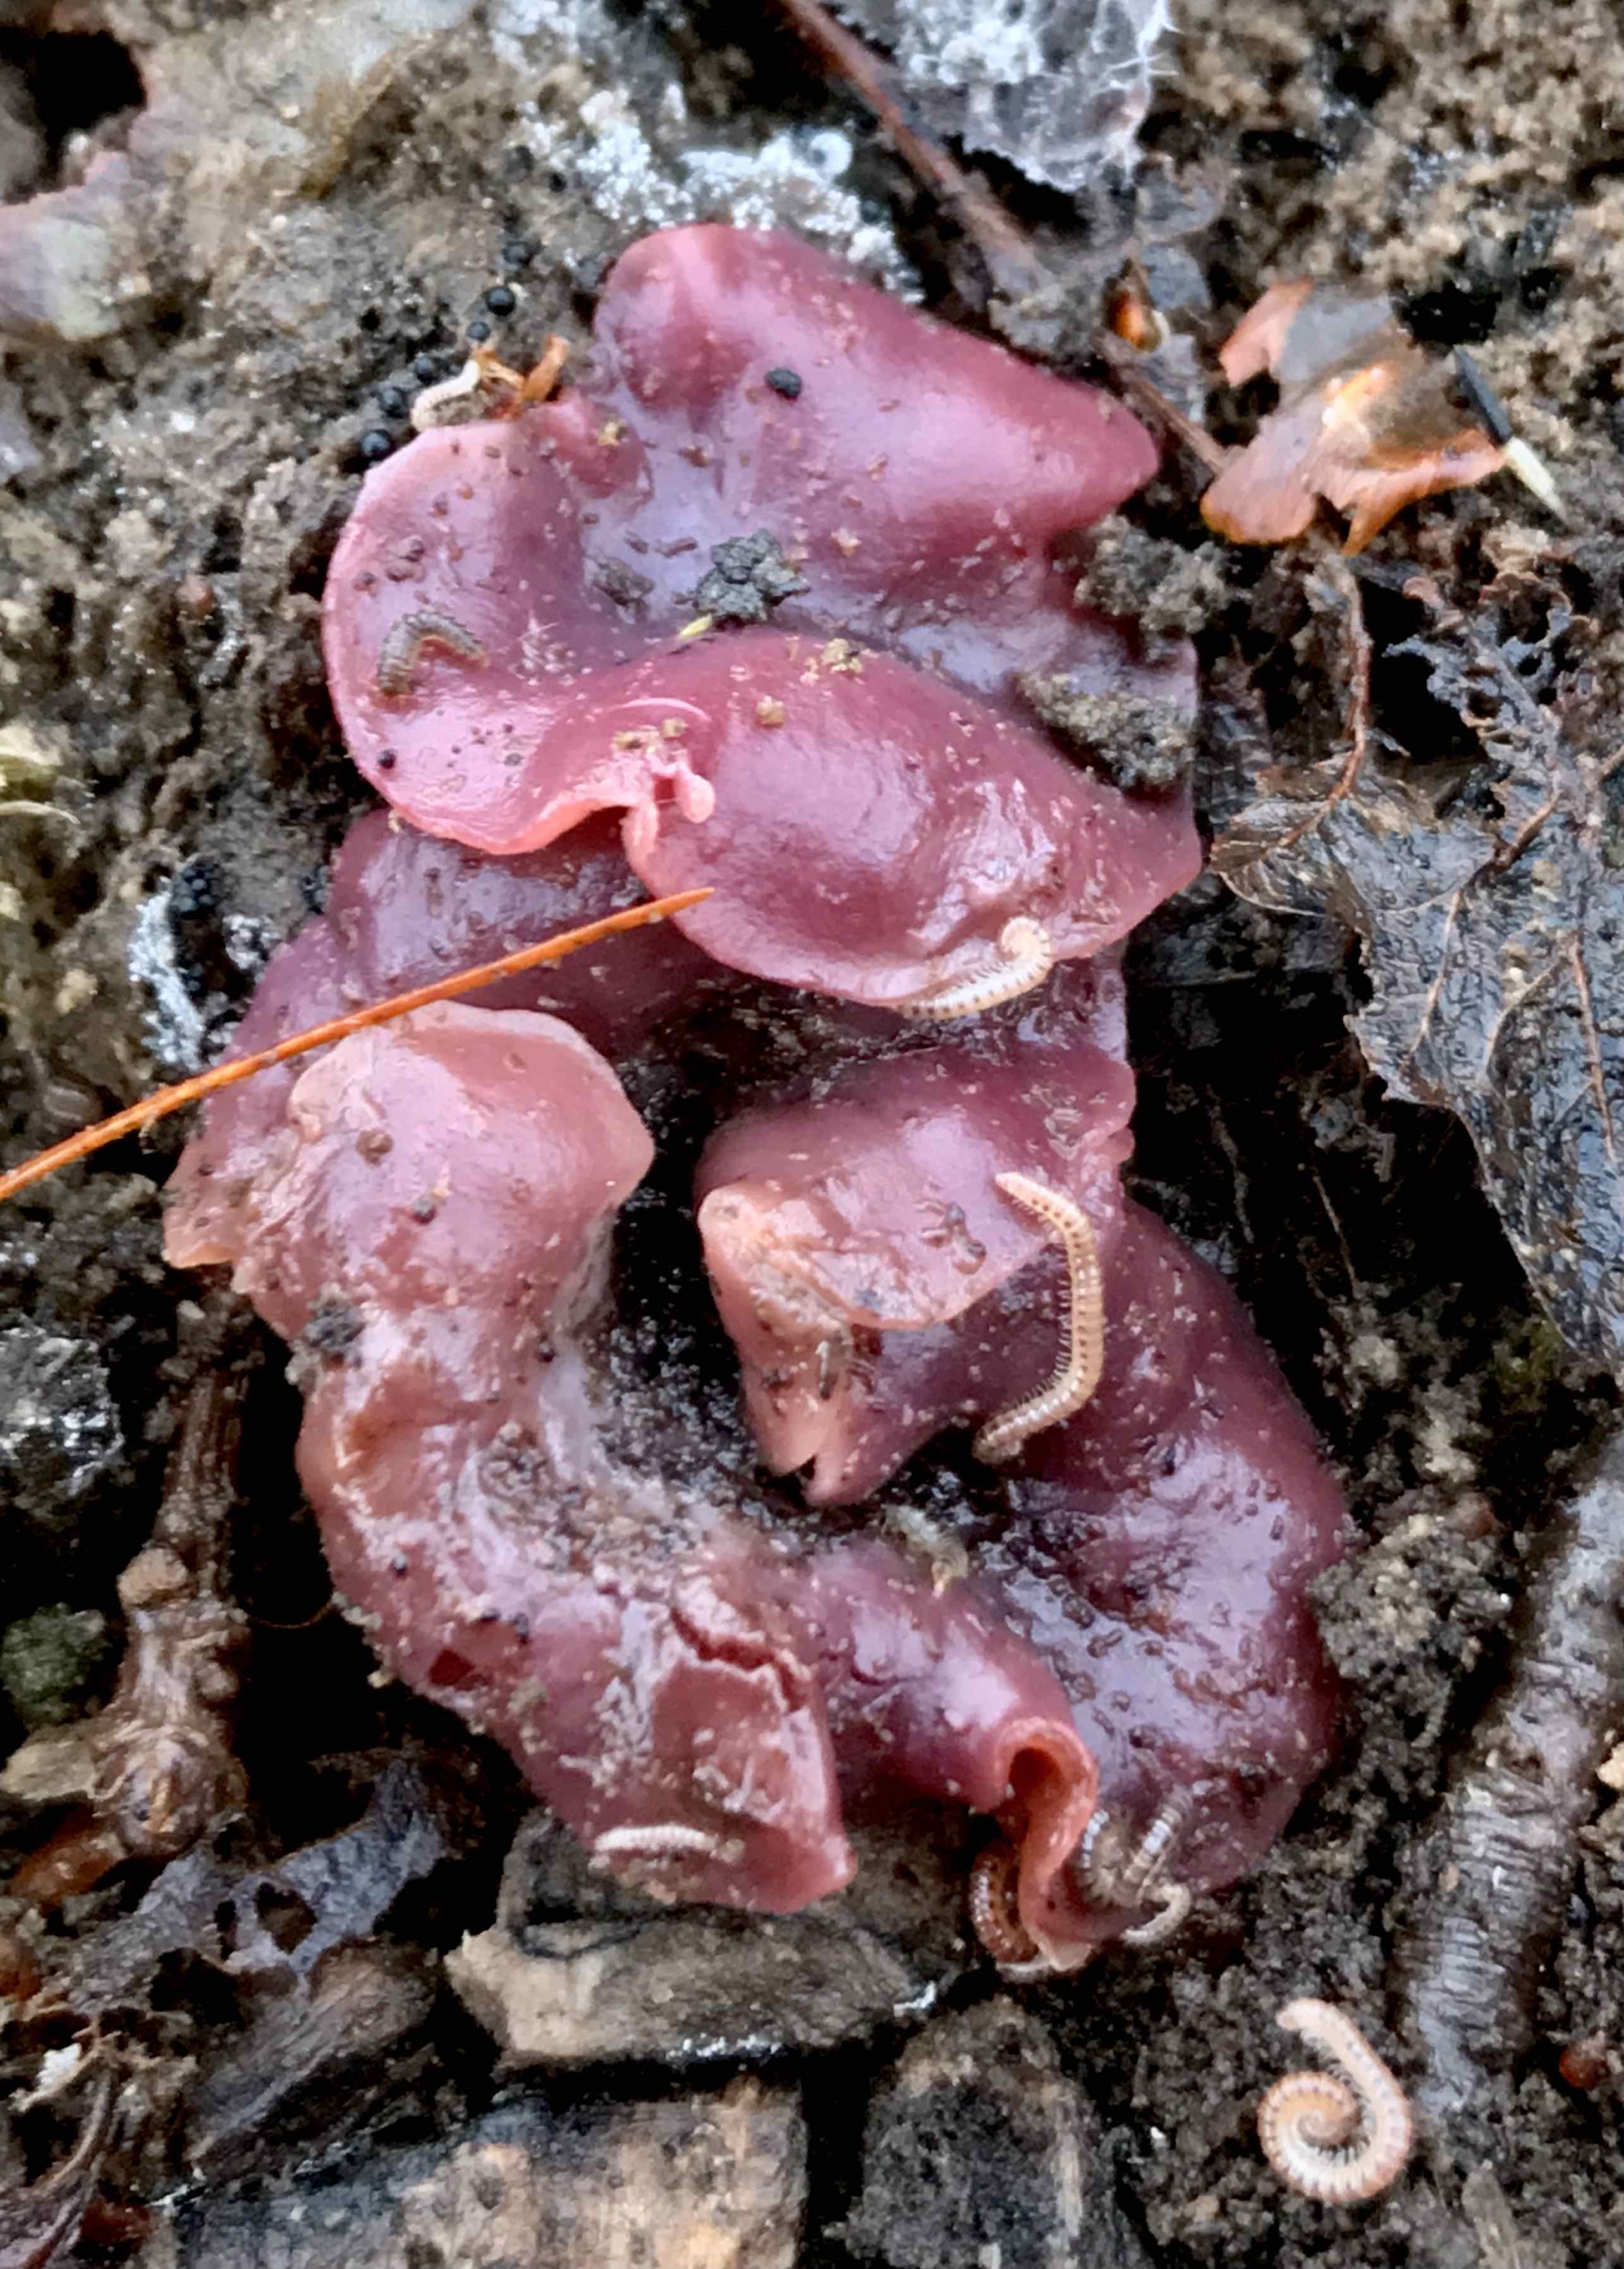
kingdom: Fungi
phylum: Ascomycota
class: Leotiomycetes
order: Helotiales
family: Gelatinodiscaceae
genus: Ascocoryne
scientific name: Ascocoryne cylichnium
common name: stor sejskive
